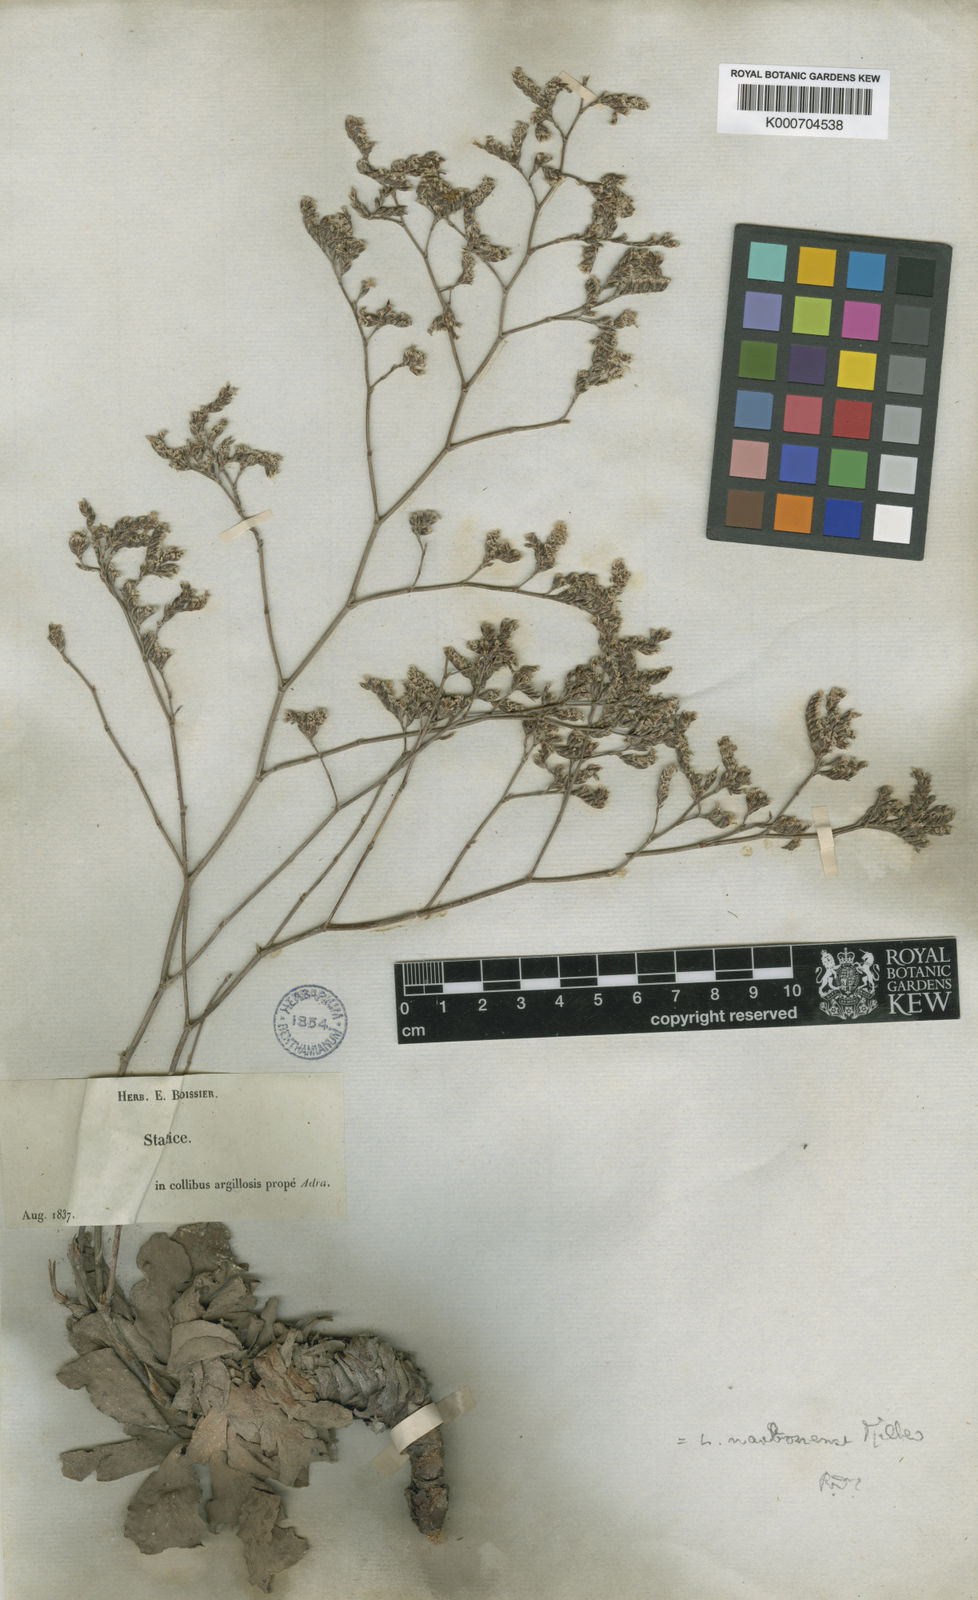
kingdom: Plantae
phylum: Tracheophyta
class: Magnoliopsida
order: Caryophyllales
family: Plumbaginaceae
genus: Limonium
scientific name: Limonium delicatulum
